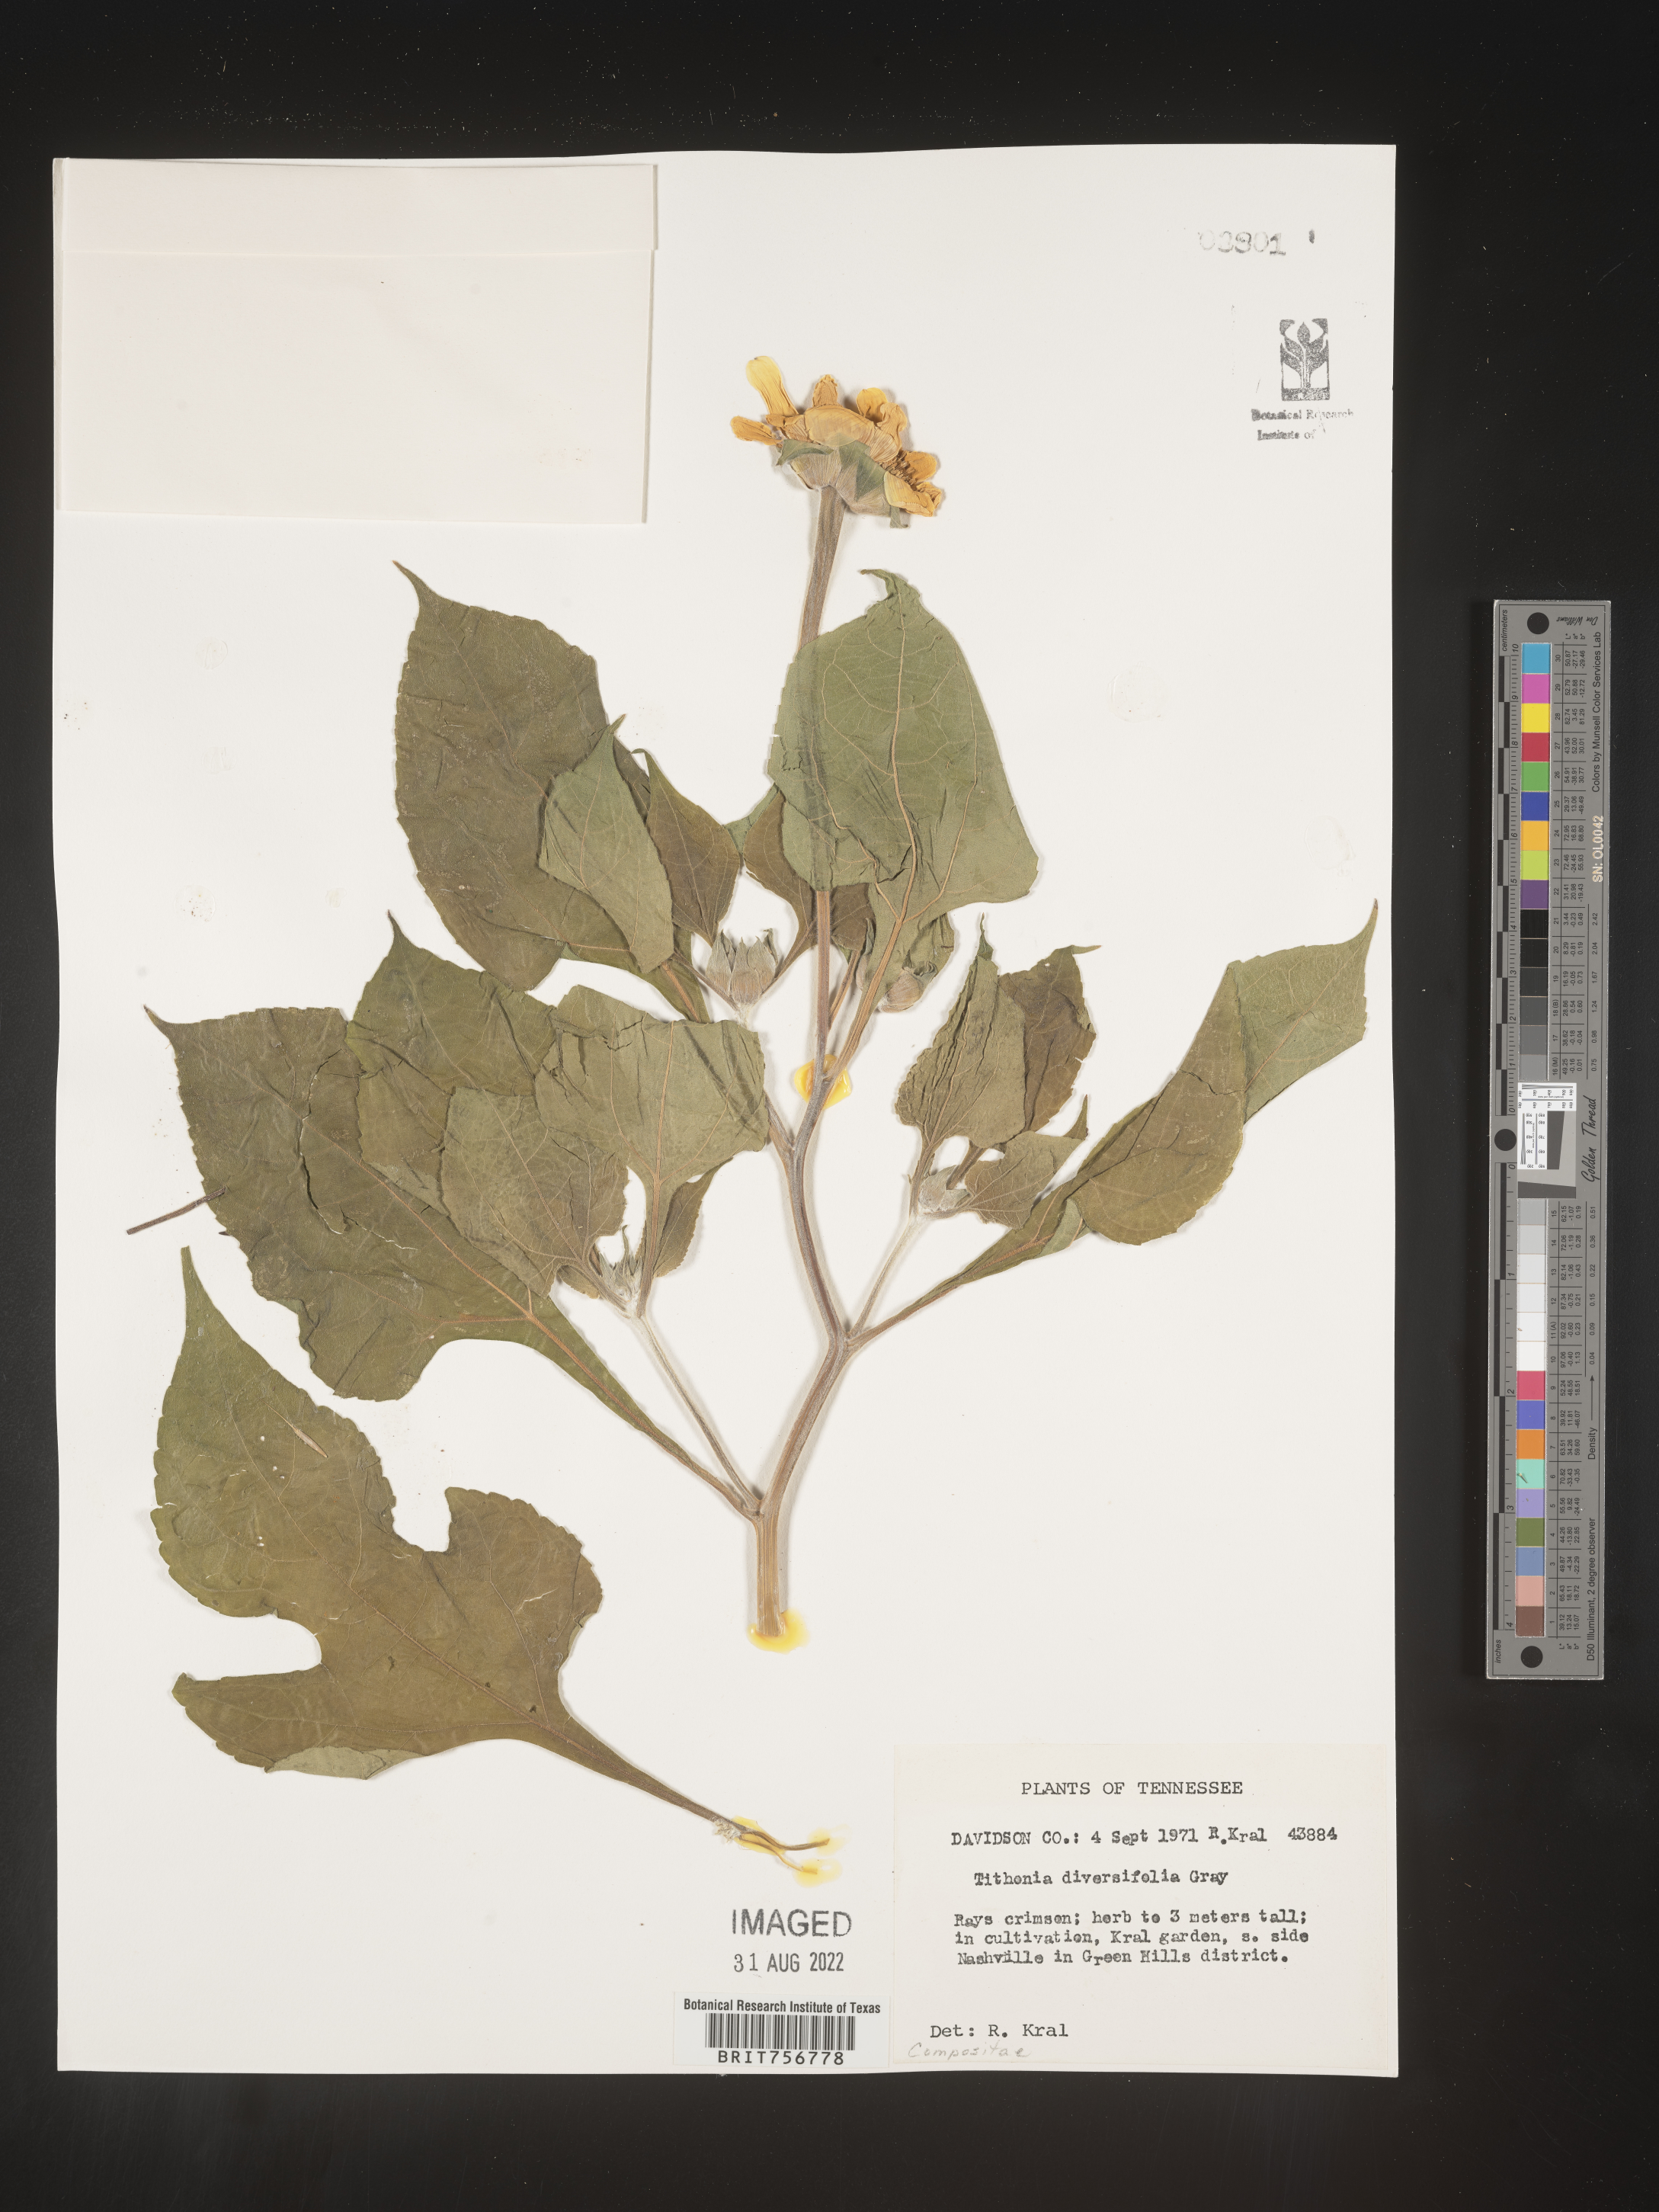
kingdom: Plantae
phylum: Tracheophyta
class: Magnoliopsida
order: Asterales
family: Asteraceae
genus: Tithonia
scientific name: Tithonia
